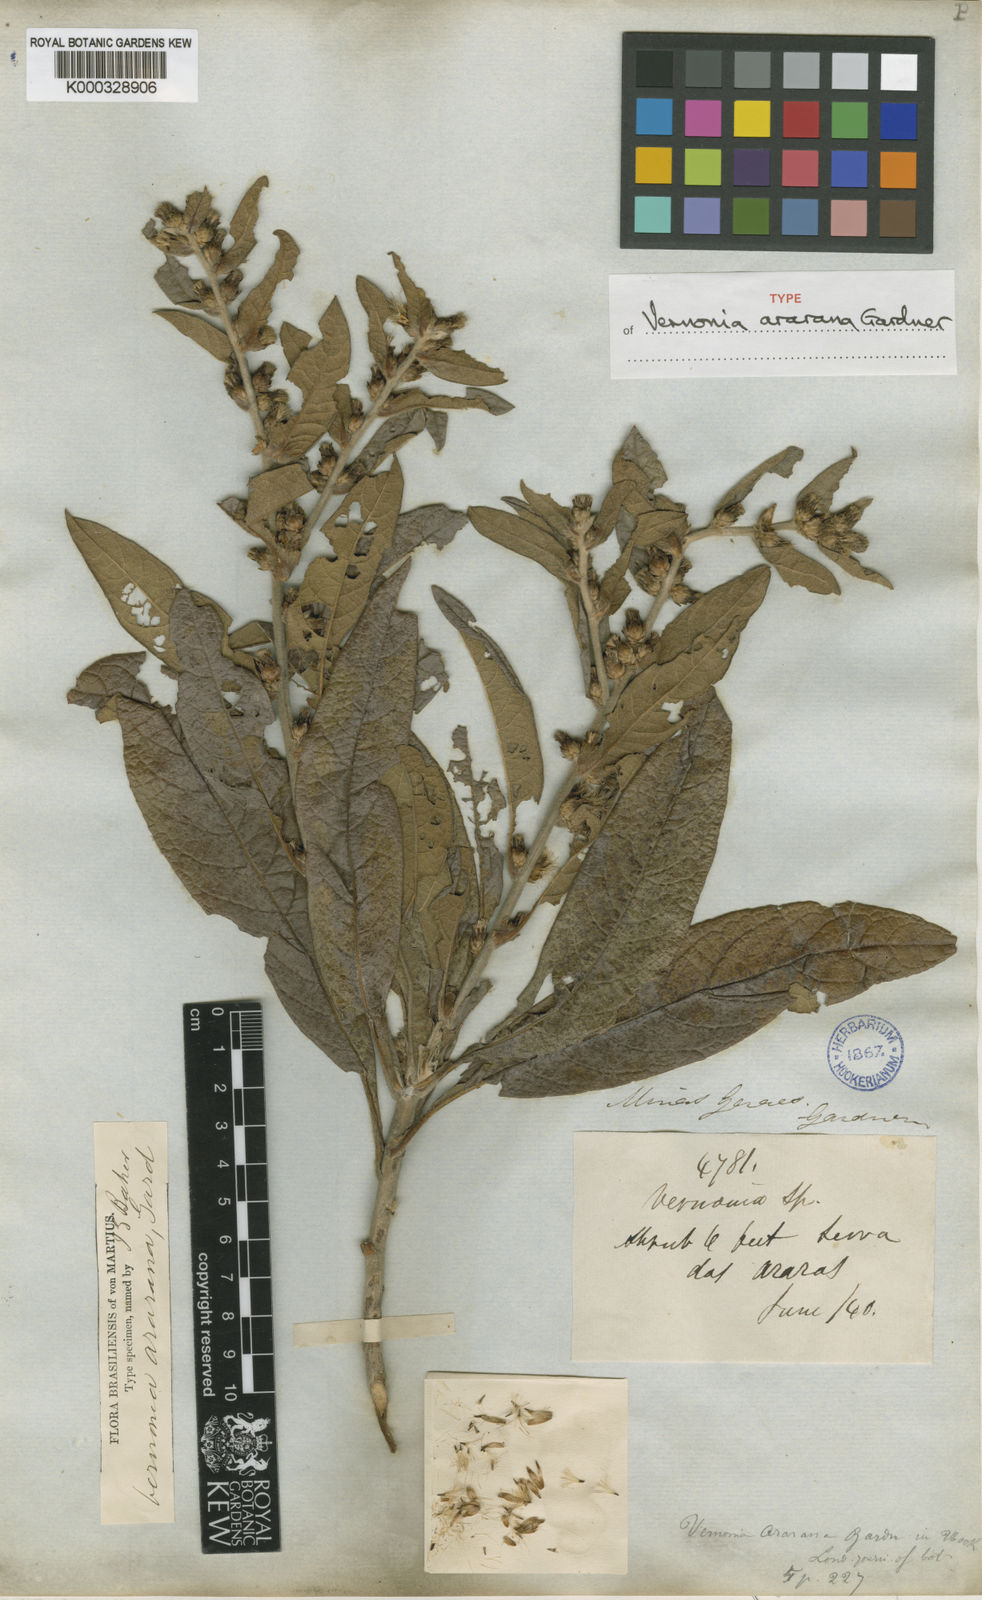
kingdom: Plantae
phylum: Tracheophyta
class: Magnoliopsida
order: Asterales
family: Asteraceae
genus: Acilepidopsis
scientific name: Acilepidopsis echitifolia
